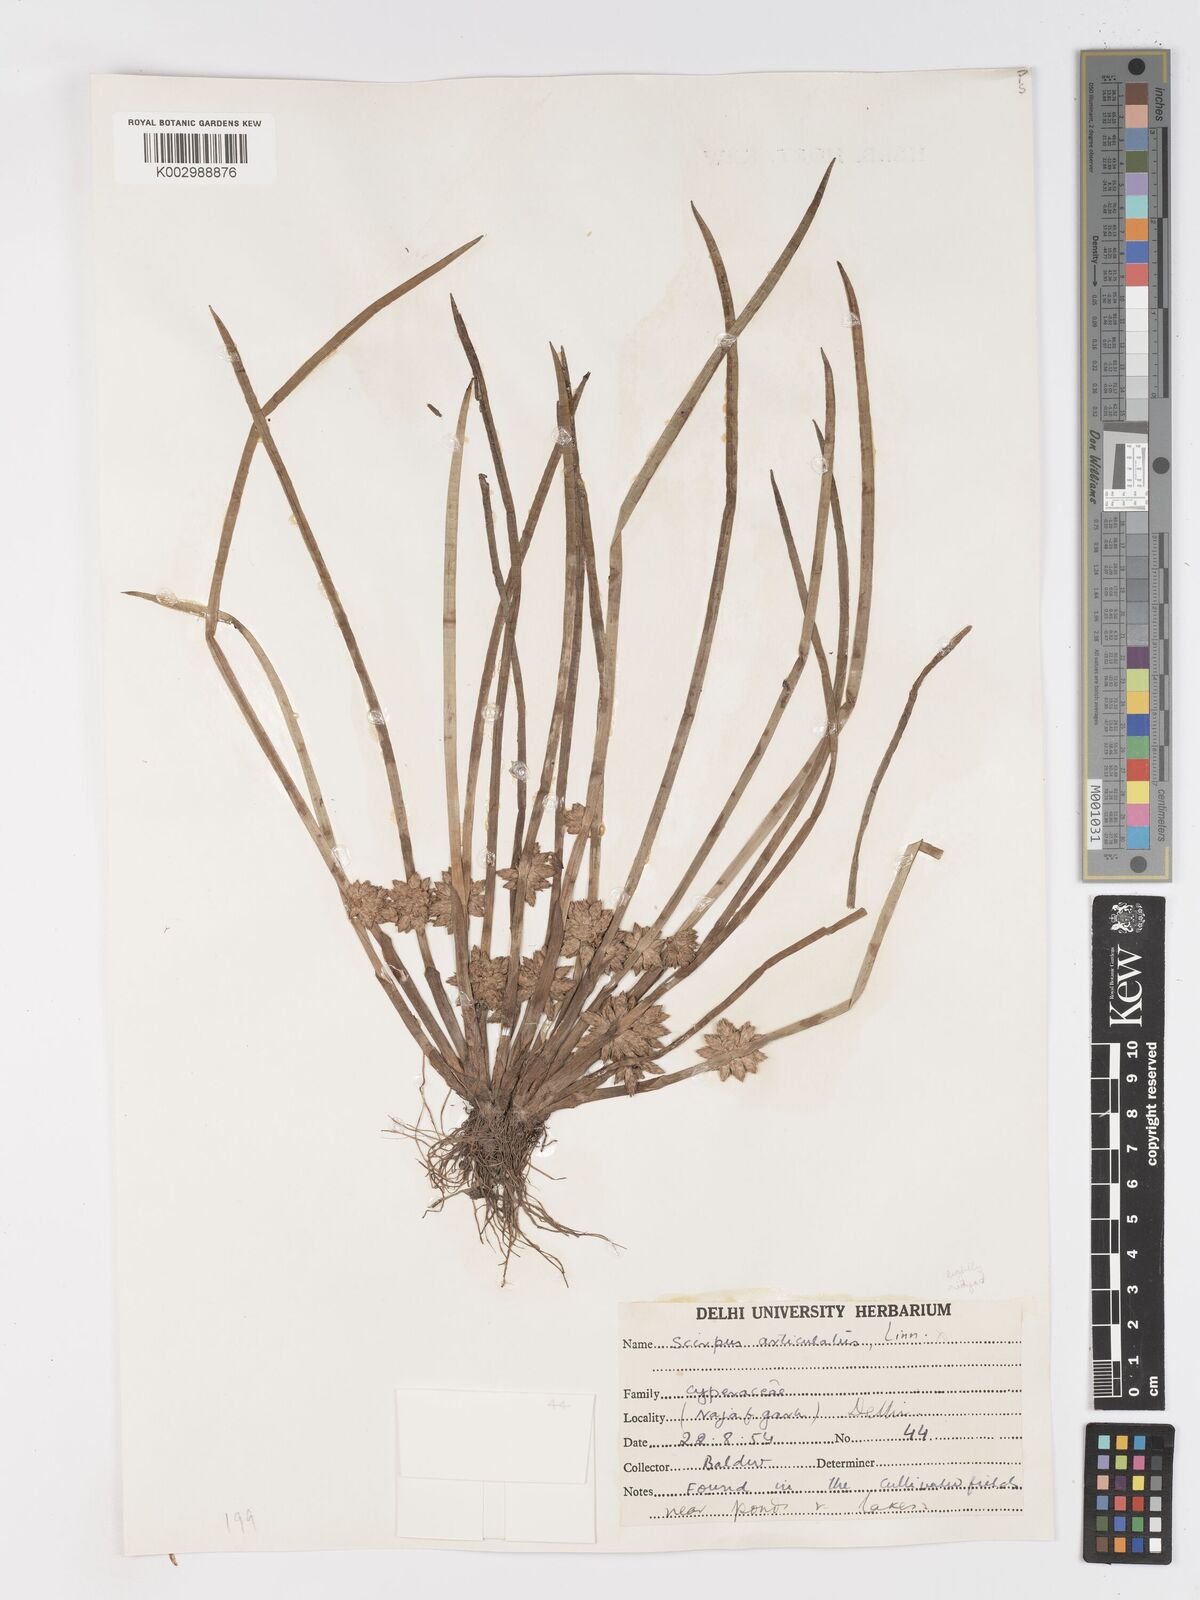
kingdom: Plantae
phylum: Tracheophyta
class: Liliopsida
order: Poales
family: Cyperaceae
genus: Schoenoplectiella
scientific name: Schoenoplectiella praelongata
